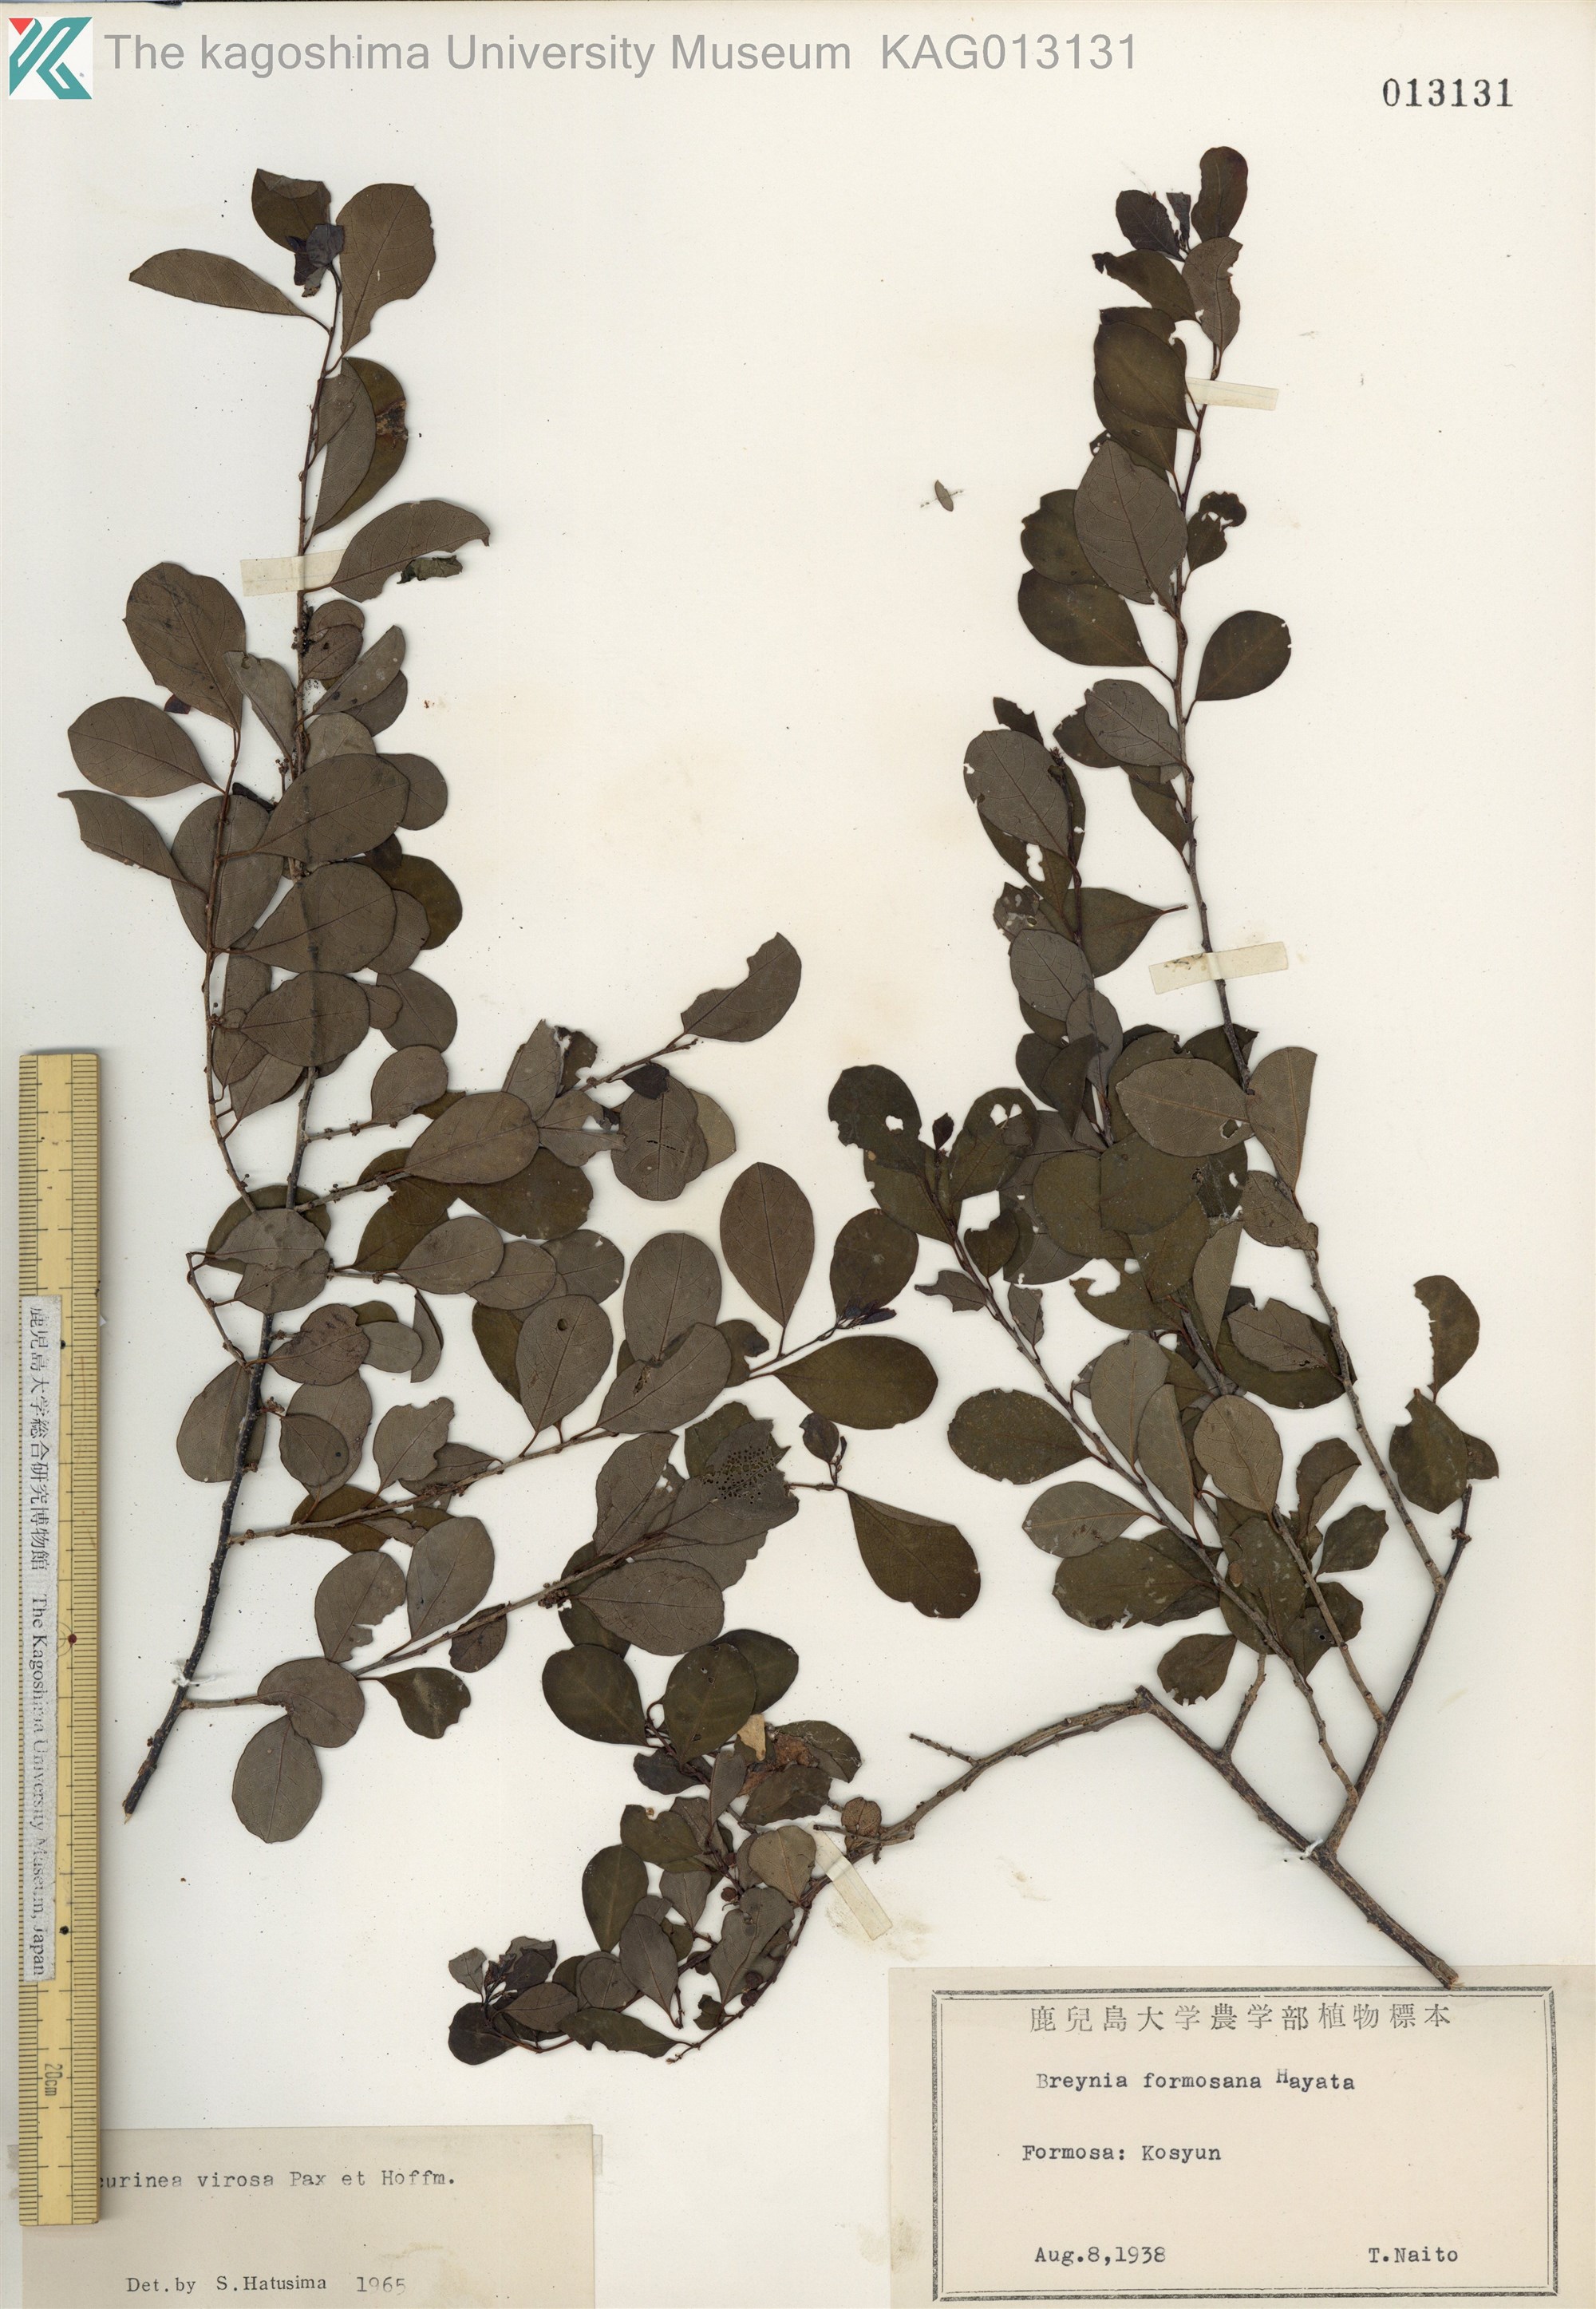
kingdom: Plantae
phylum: Tracheophyta
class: Magnoliopsida
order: Malpighiales
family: Phyllanthaceae
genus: Flueggea
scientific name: Flueggea virosa
